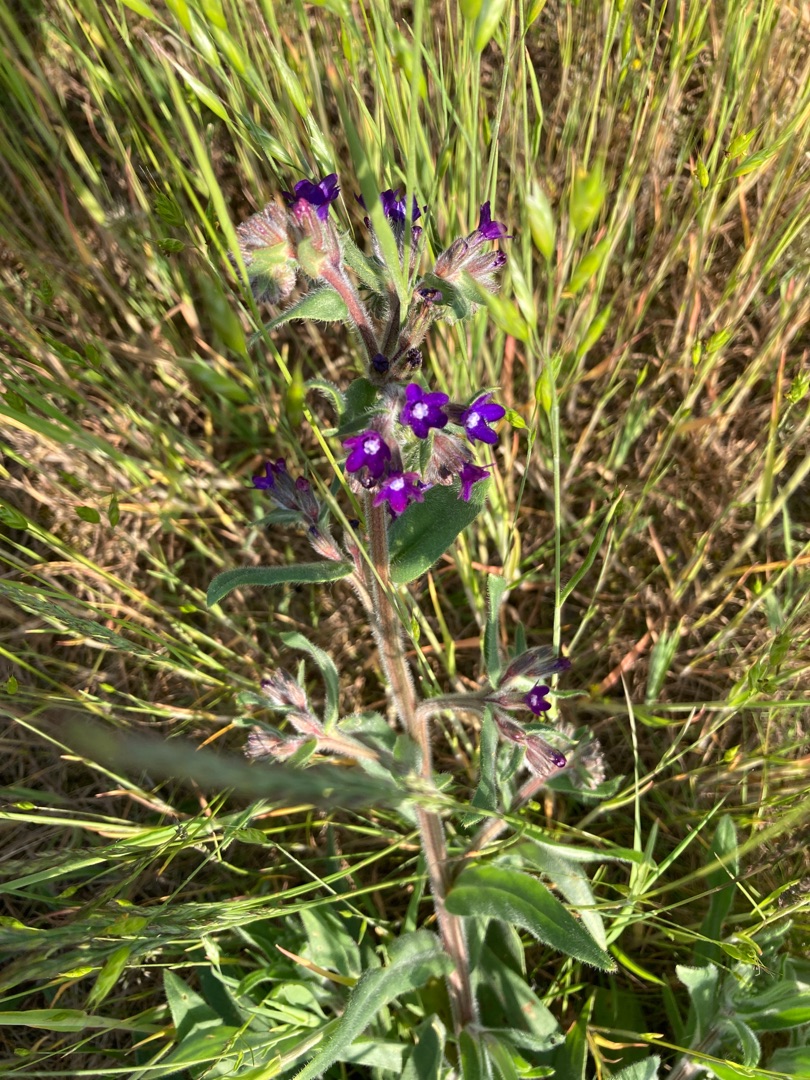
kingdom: Plantae
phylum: Tracheophyta
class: Magnoliopsida
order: Boraginales
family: Boraginaceae
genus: Anchusa
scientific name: Anchusa officinalis
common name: Læge-oksetunge
